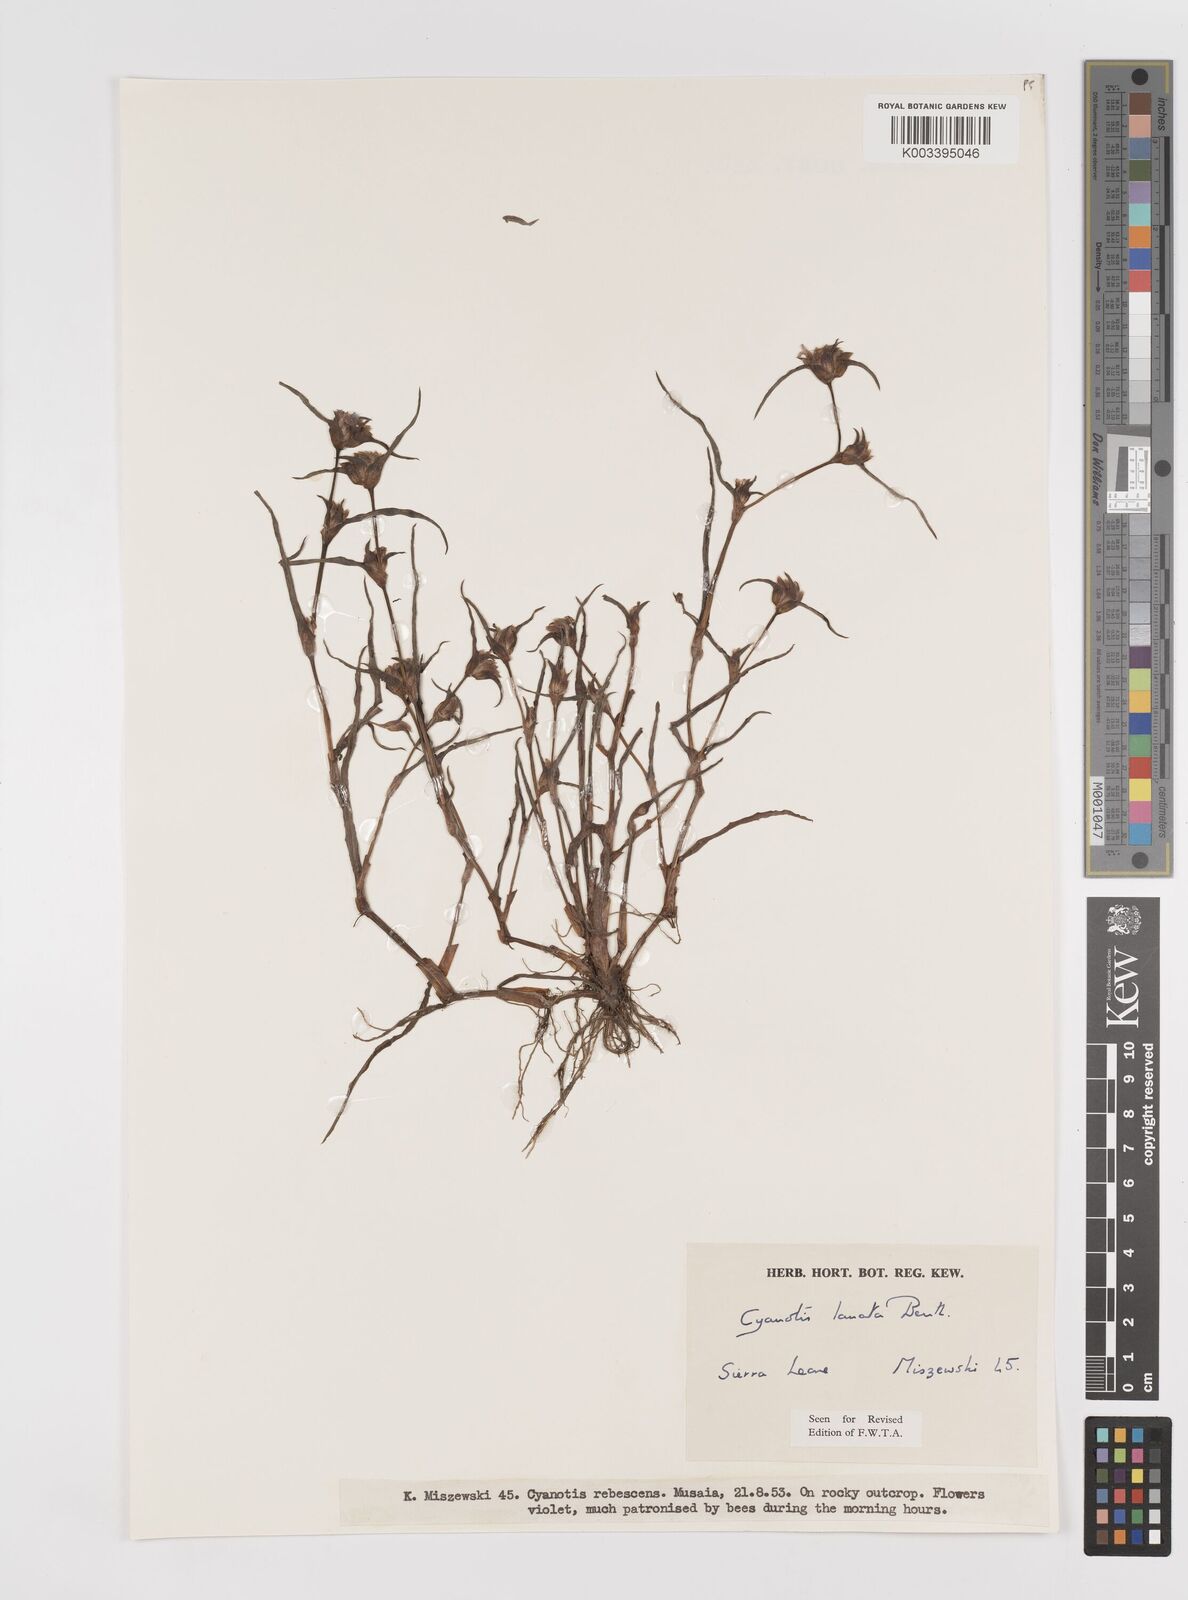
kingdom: Plantae
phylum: Tracheophyta
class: Liliopsida
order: Commelinales
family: Commelinaceae
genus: Cyanotis
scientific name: Cyanotis lanata
